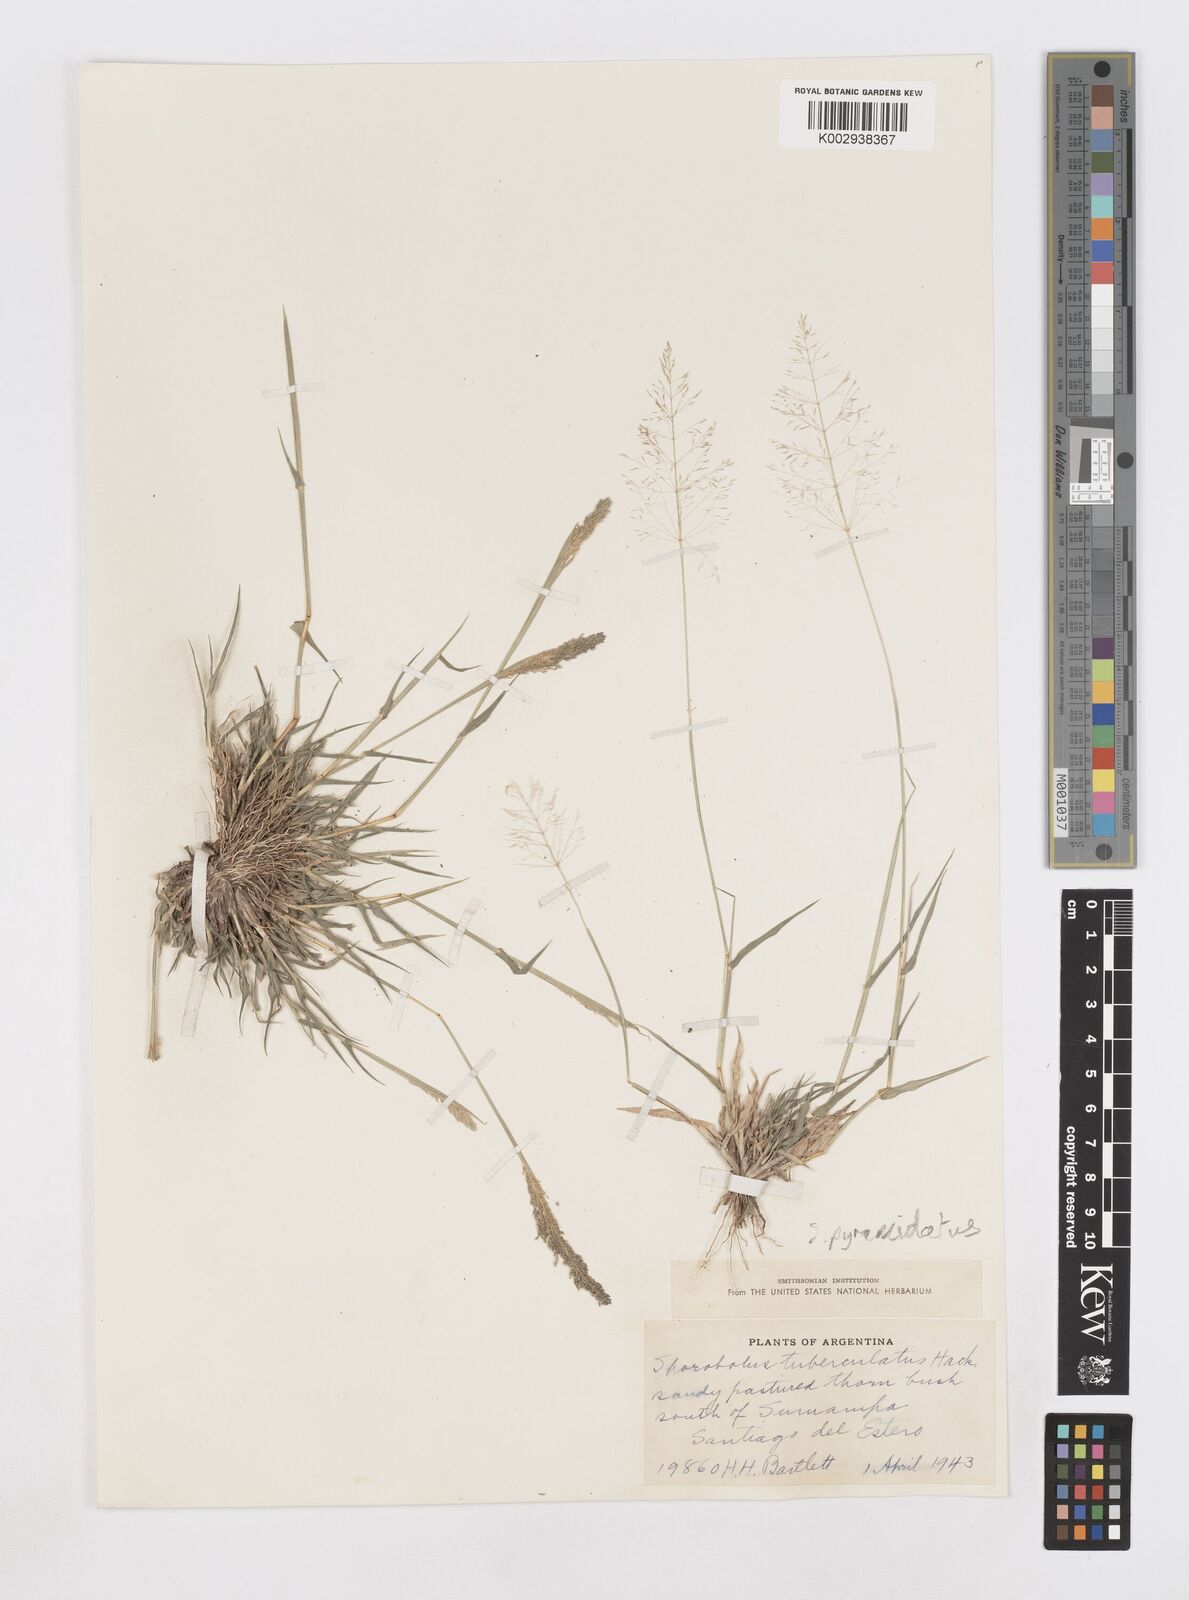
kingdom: Plantae
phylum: Tracheophyta
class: Liliopsida
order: Poales
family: Poaceae
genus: Sporobolus
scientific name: Sporobolus pyramidatus
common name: Whorled dropseed
